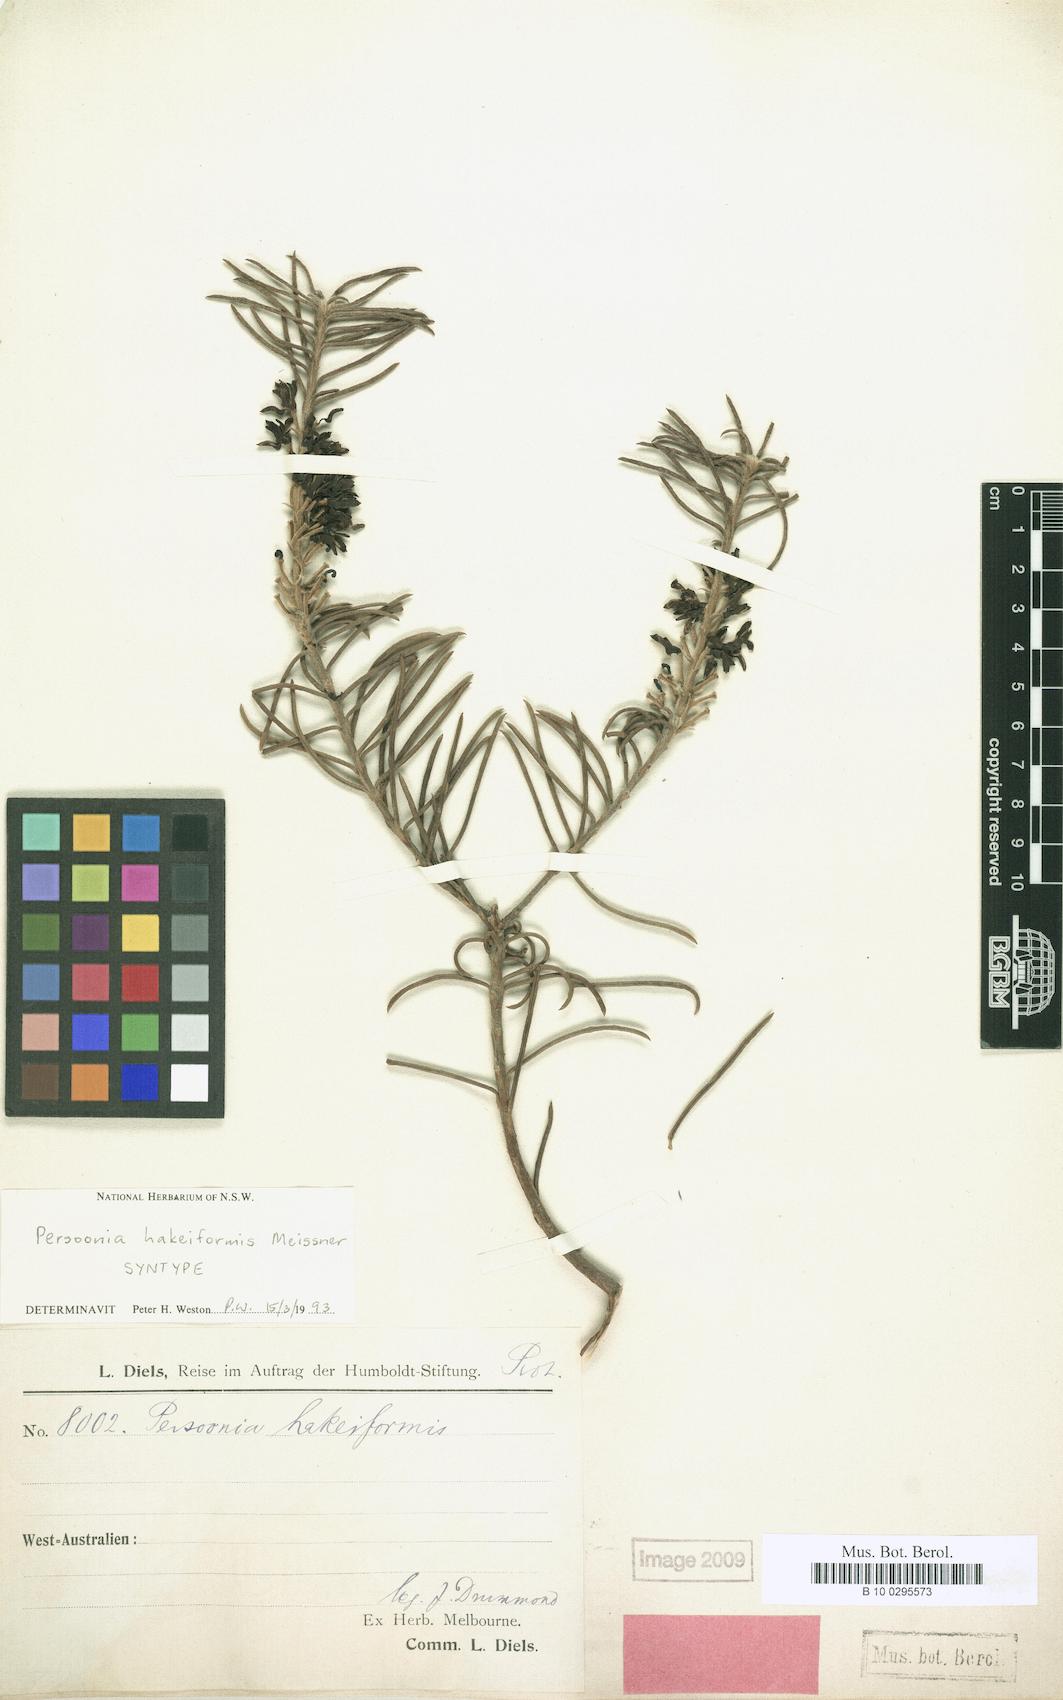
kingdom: Plantae
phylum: Tracheophyta
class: Magnoliopsida
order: Proteales
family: Proteaceae
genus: Persoonia
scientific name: Persoonia hakeiformis
